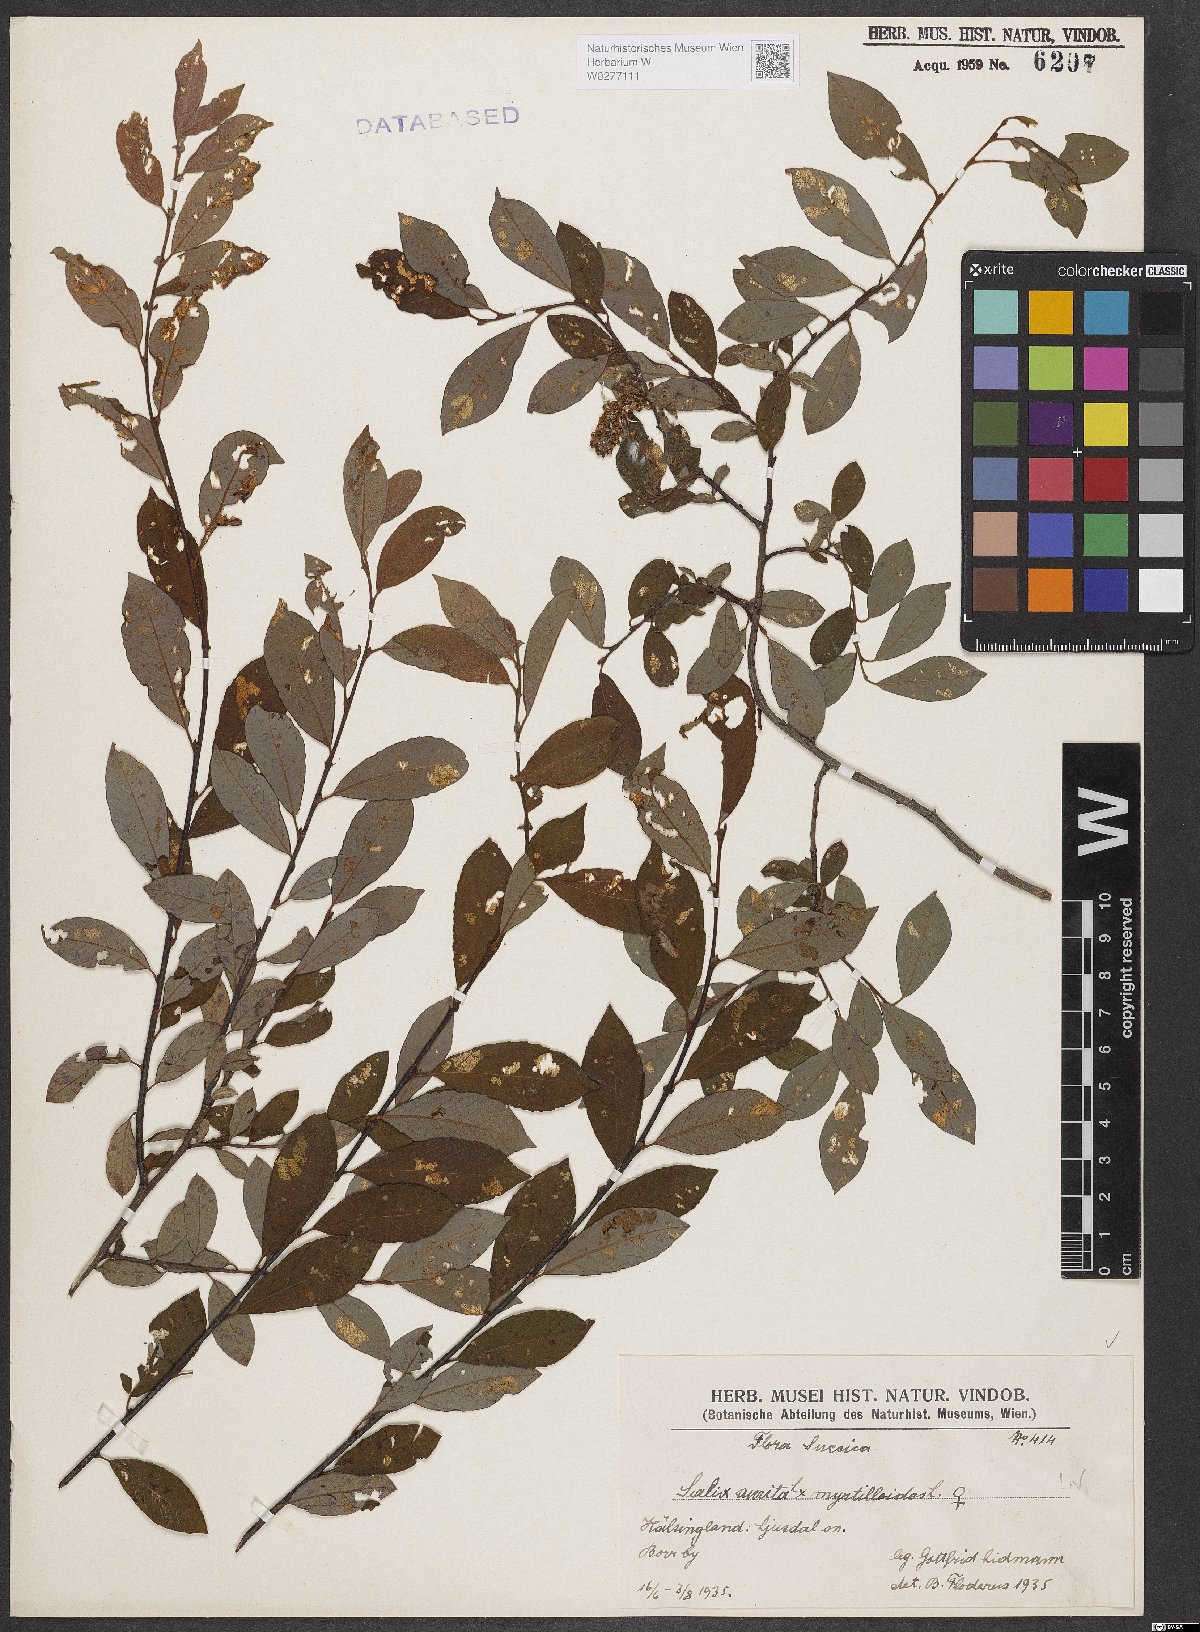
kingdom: Plantae
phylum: Tracheophyta
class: Magnoliopsida
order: Malpighiales
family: Salicaceae
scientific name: Salicaceae
